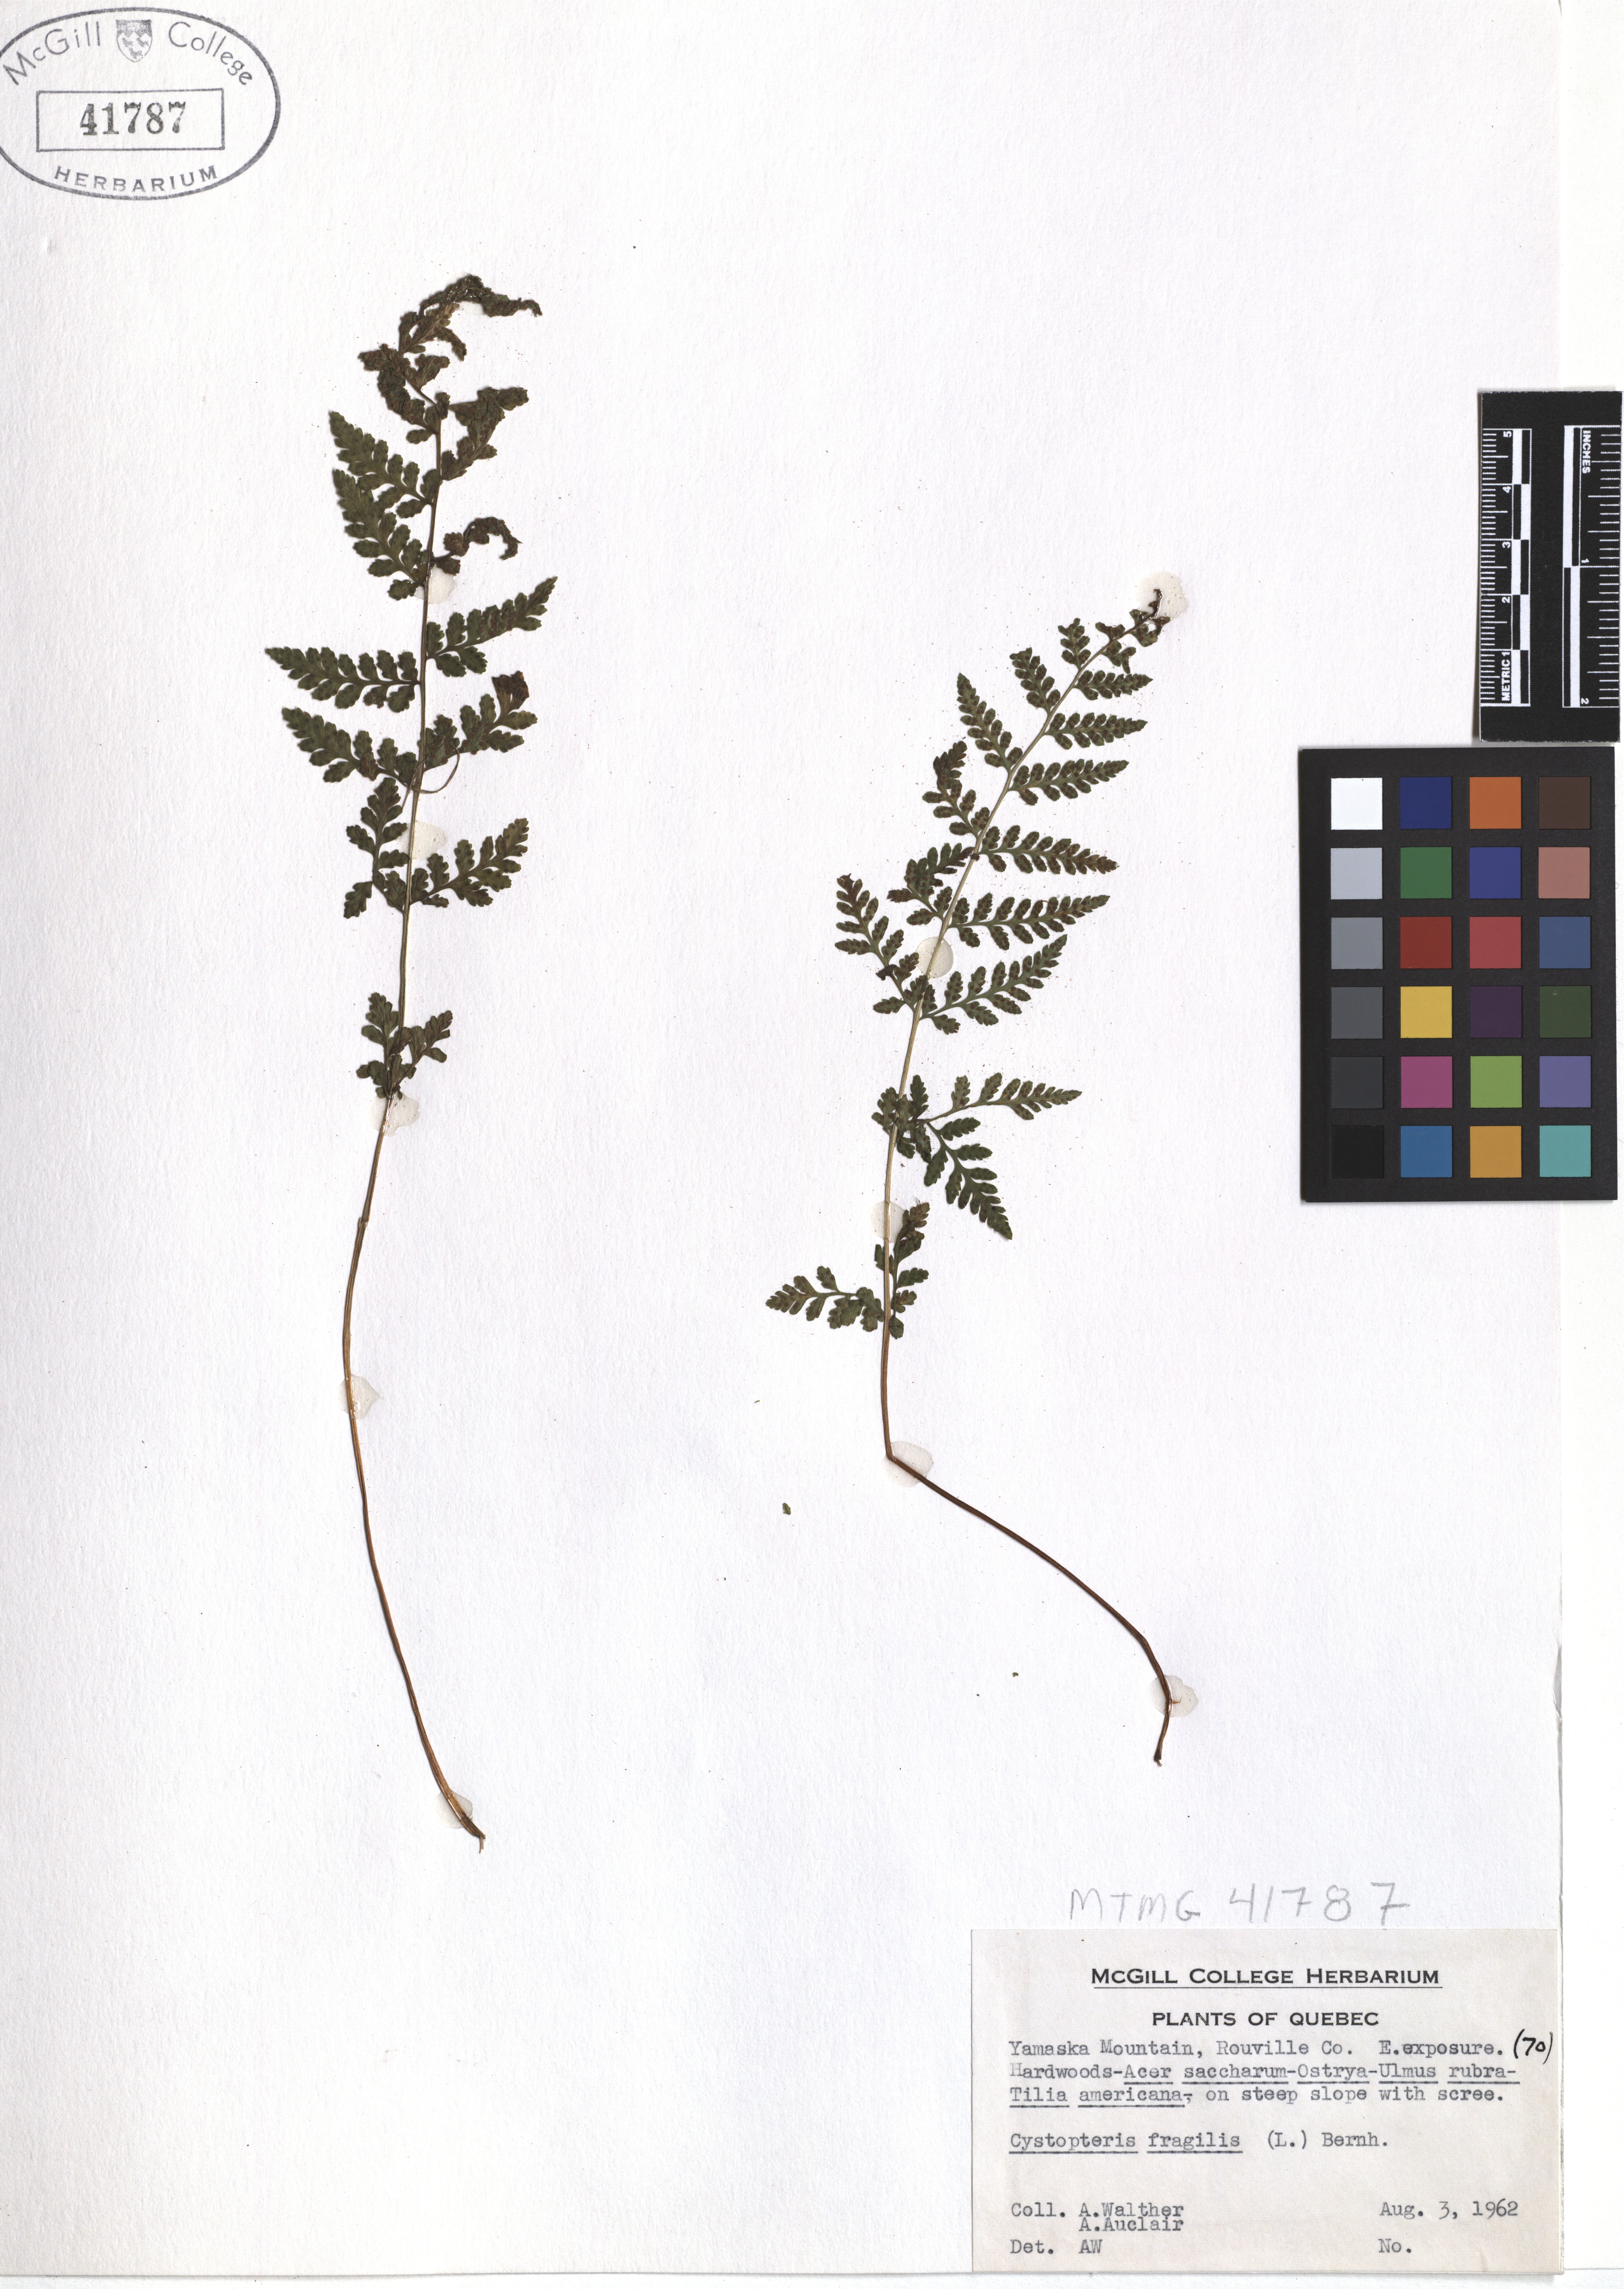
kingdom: Plantae
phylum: Tracheophyta
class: Polypodiopsida
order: Polypodiales
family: Cystopteridaceae
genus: Cystopteris
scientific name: Cystopteris fragilis
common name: Brittle bladder fern
